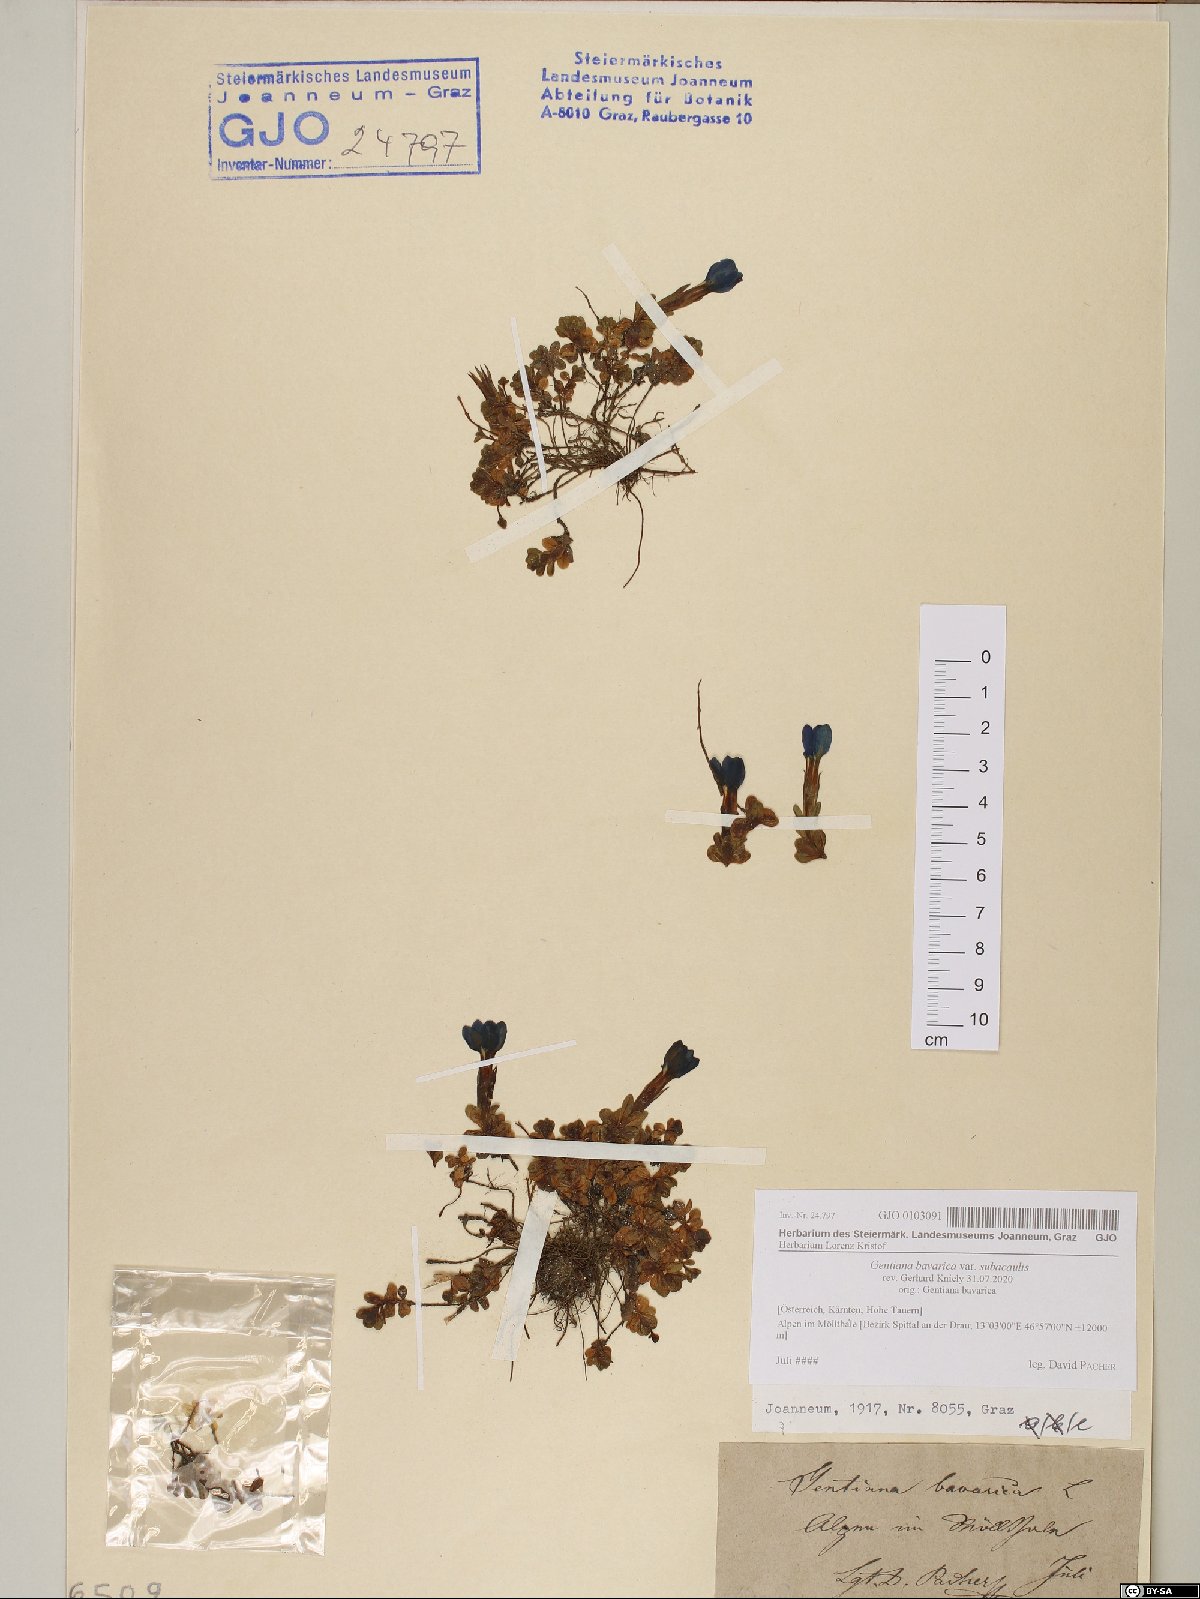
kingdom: Plantae
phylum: Tracheophyta
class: Magnoliopsida
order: Gentianales
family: Gentianaceae
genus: Gentiana
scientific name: Gentiana bavarica
